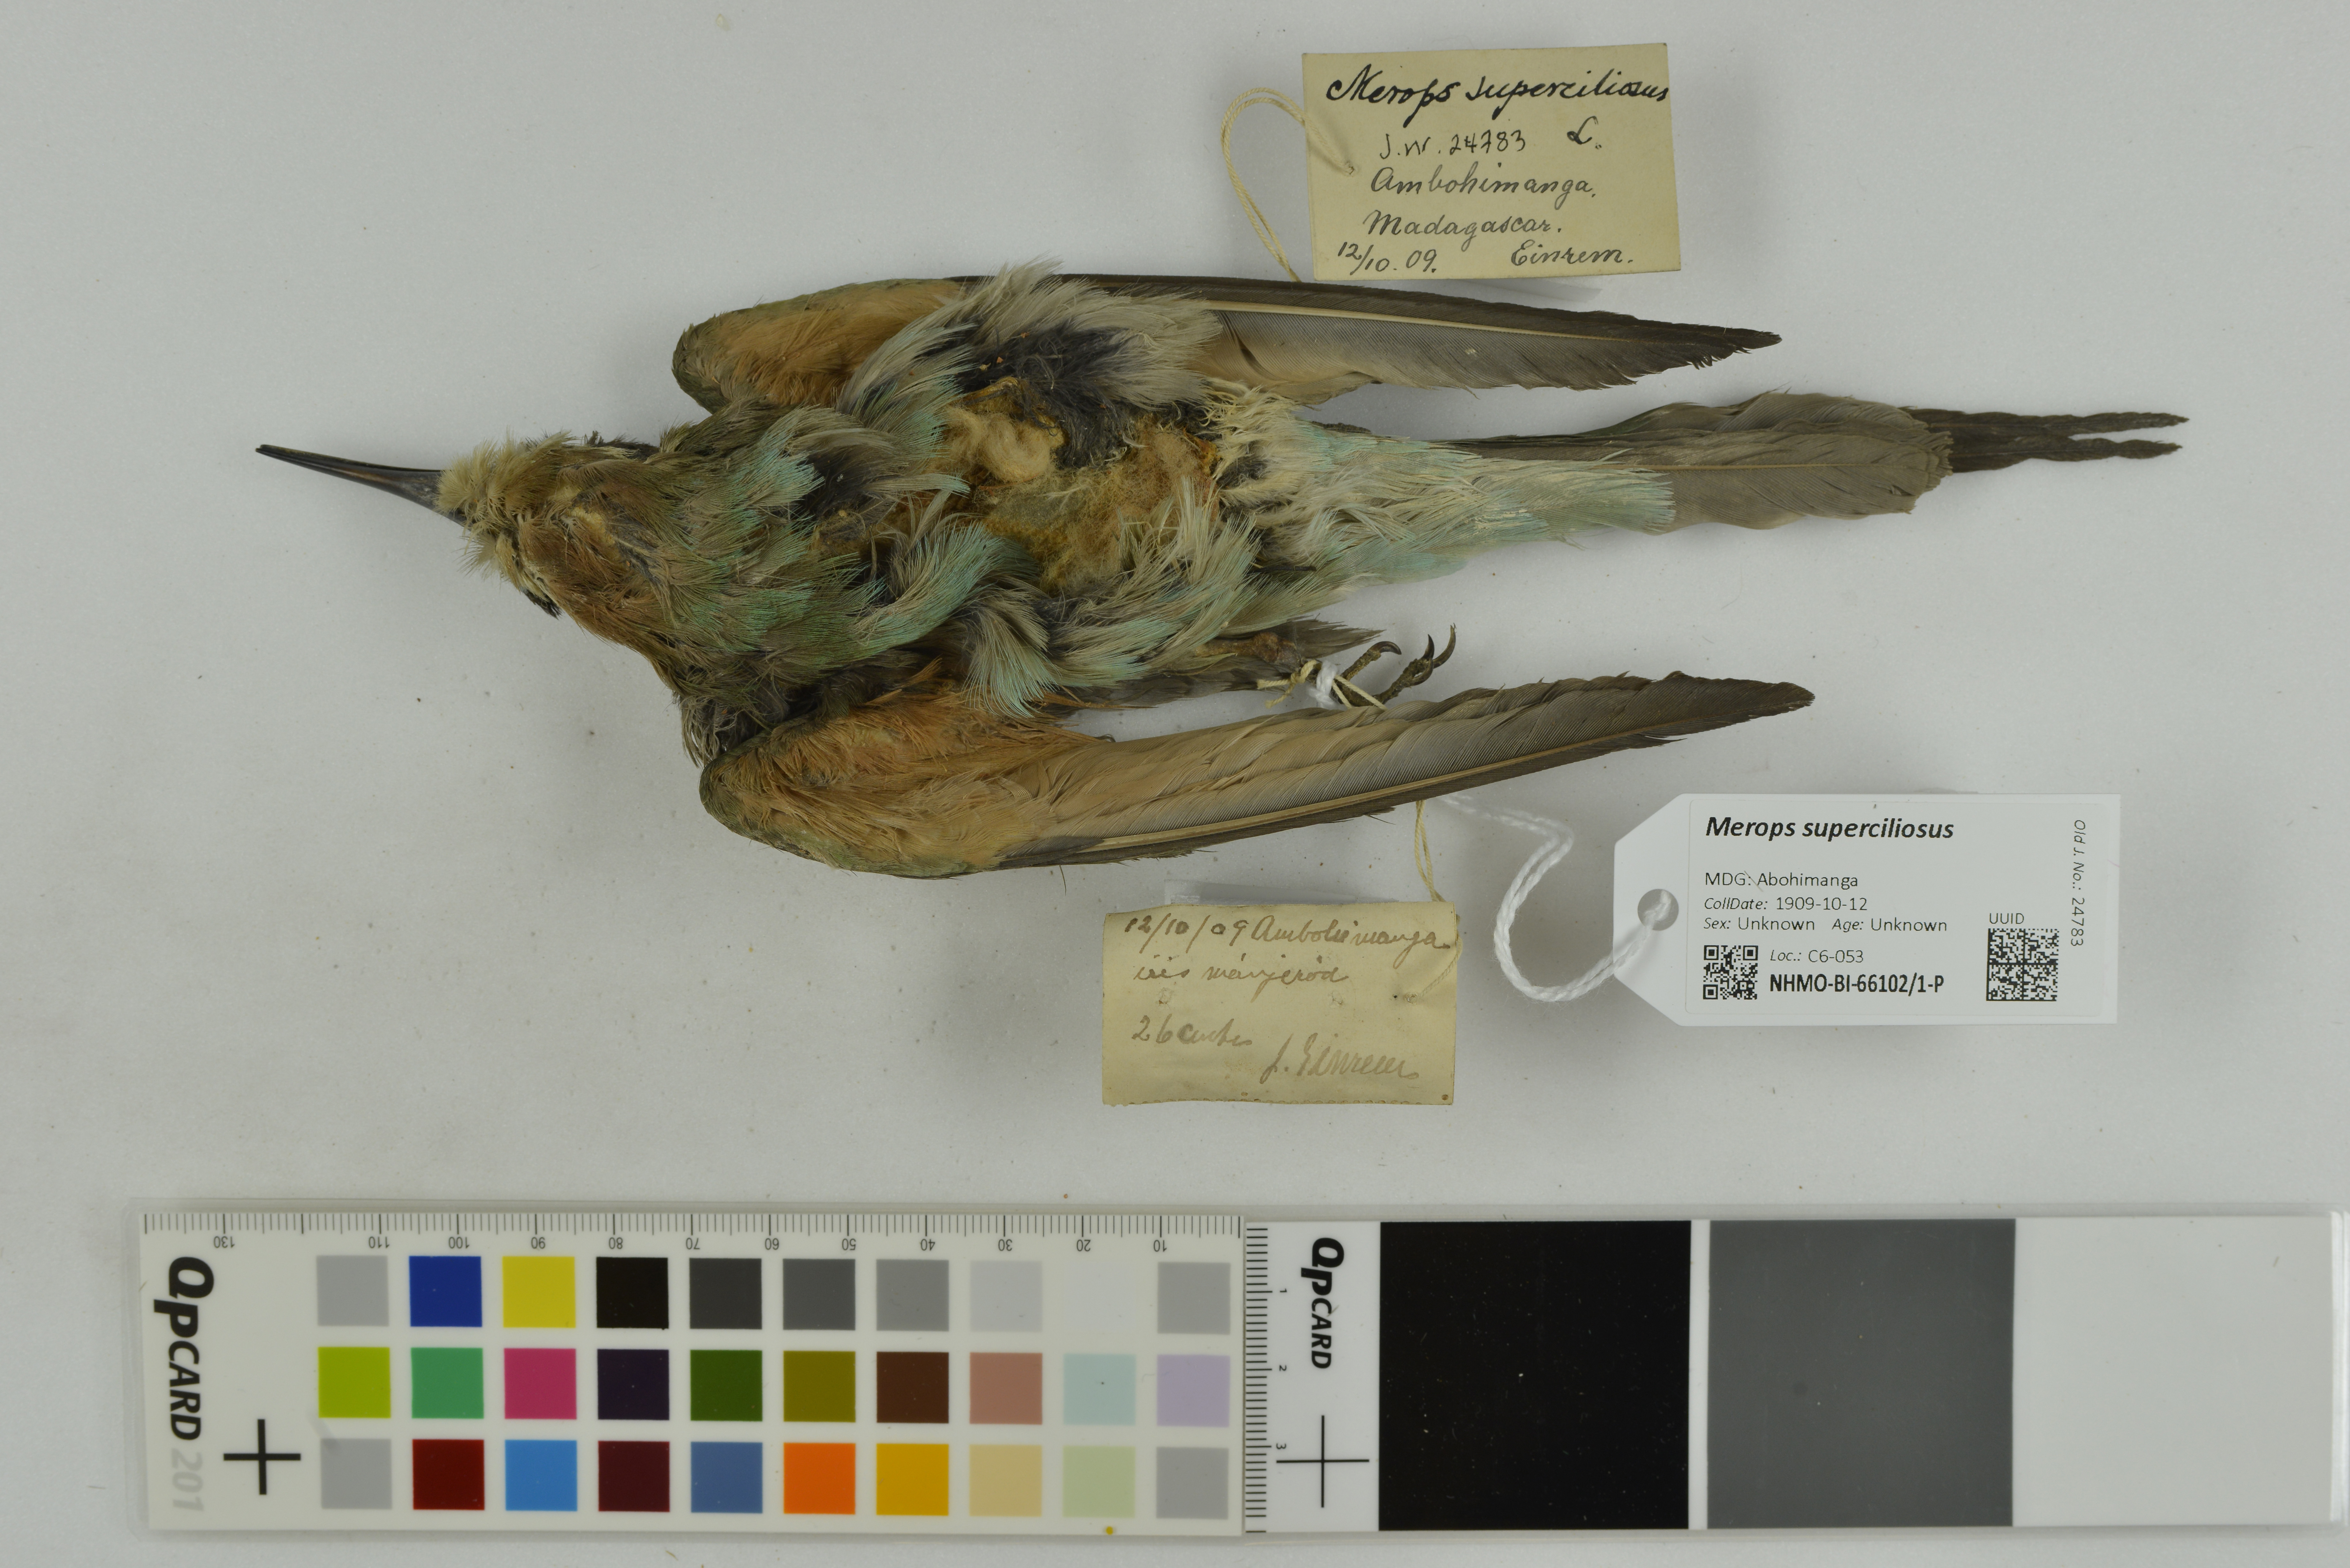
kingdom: Animalia
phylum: Chordata
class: Aves
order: Coraciiformes
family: Meropidae
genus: Merops
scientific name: Merops superciliosus
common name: Olive bee-eater
